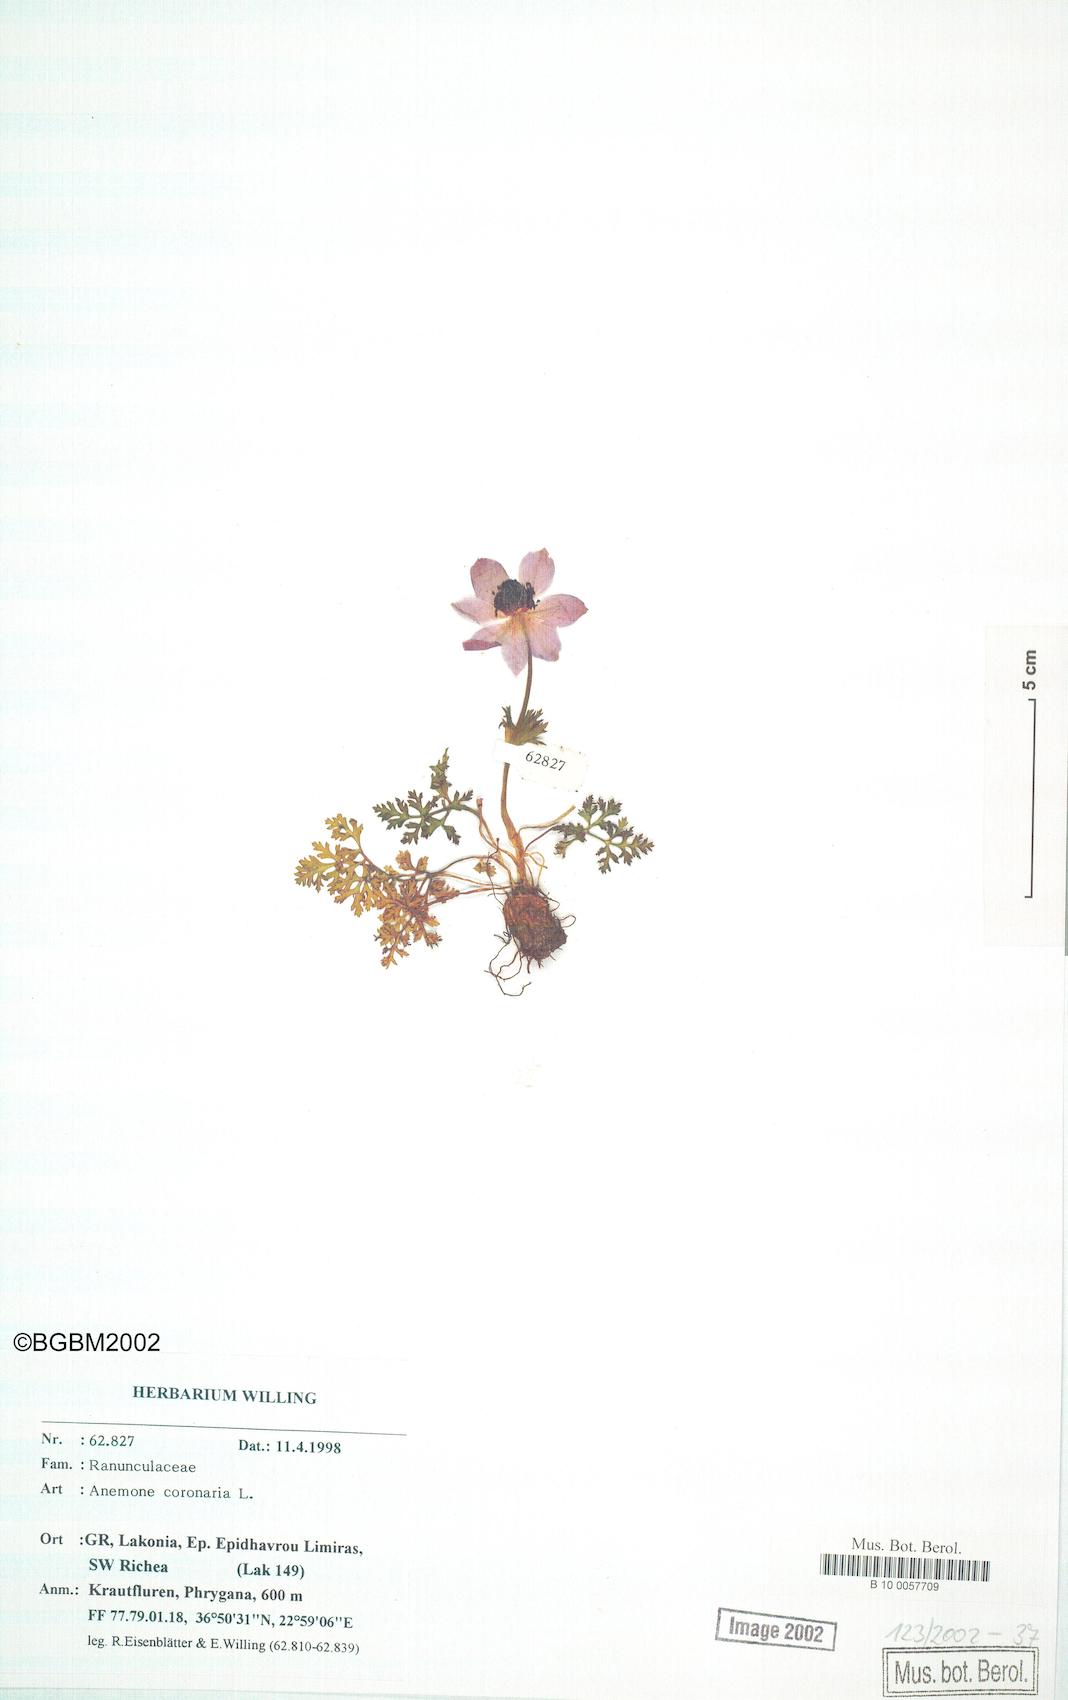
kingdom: Plantae
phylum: Tracheophyta
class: Magnoliopsida
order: Ranunculales
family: Ranunculaceae
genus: Anemone
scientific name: Anemone coronaria
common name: Poppy anemone
